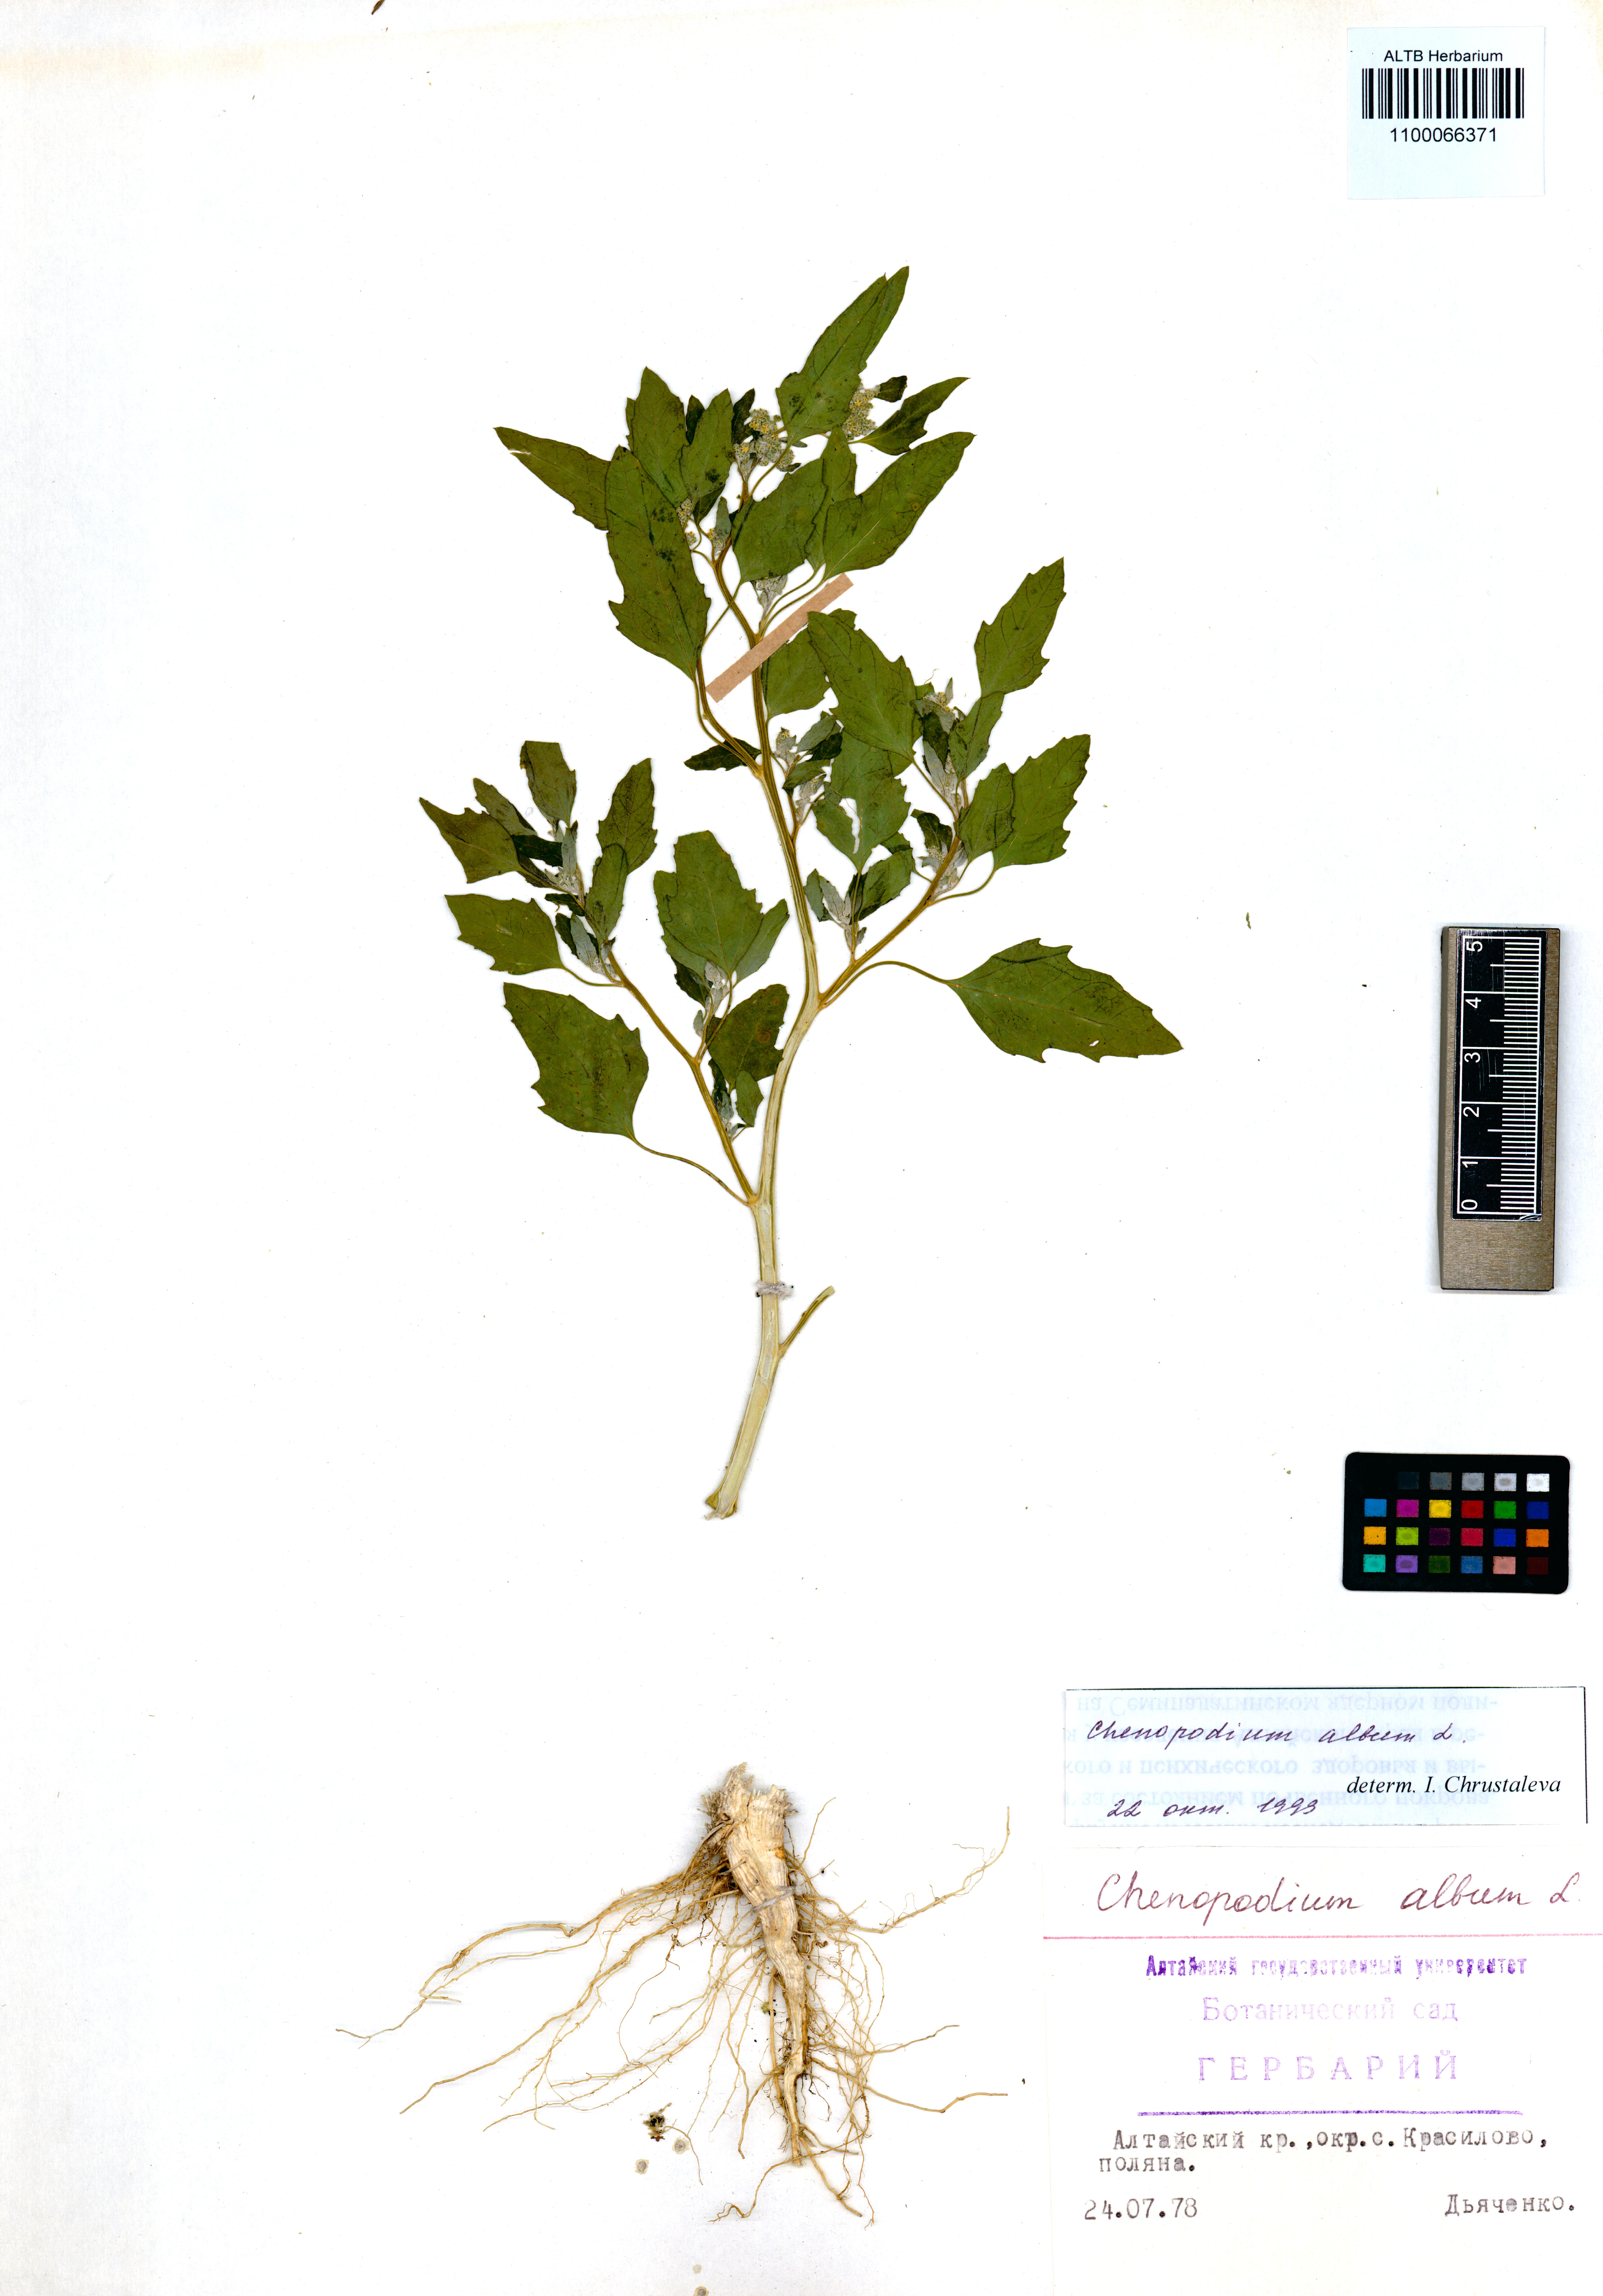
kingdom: Plantae
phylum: Tracheophyta
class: Magnoliopsida
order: Caryophyllales
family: Amaranthaceae
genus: Chenopodium
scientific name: Chenopodium album
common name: Fat-hen
